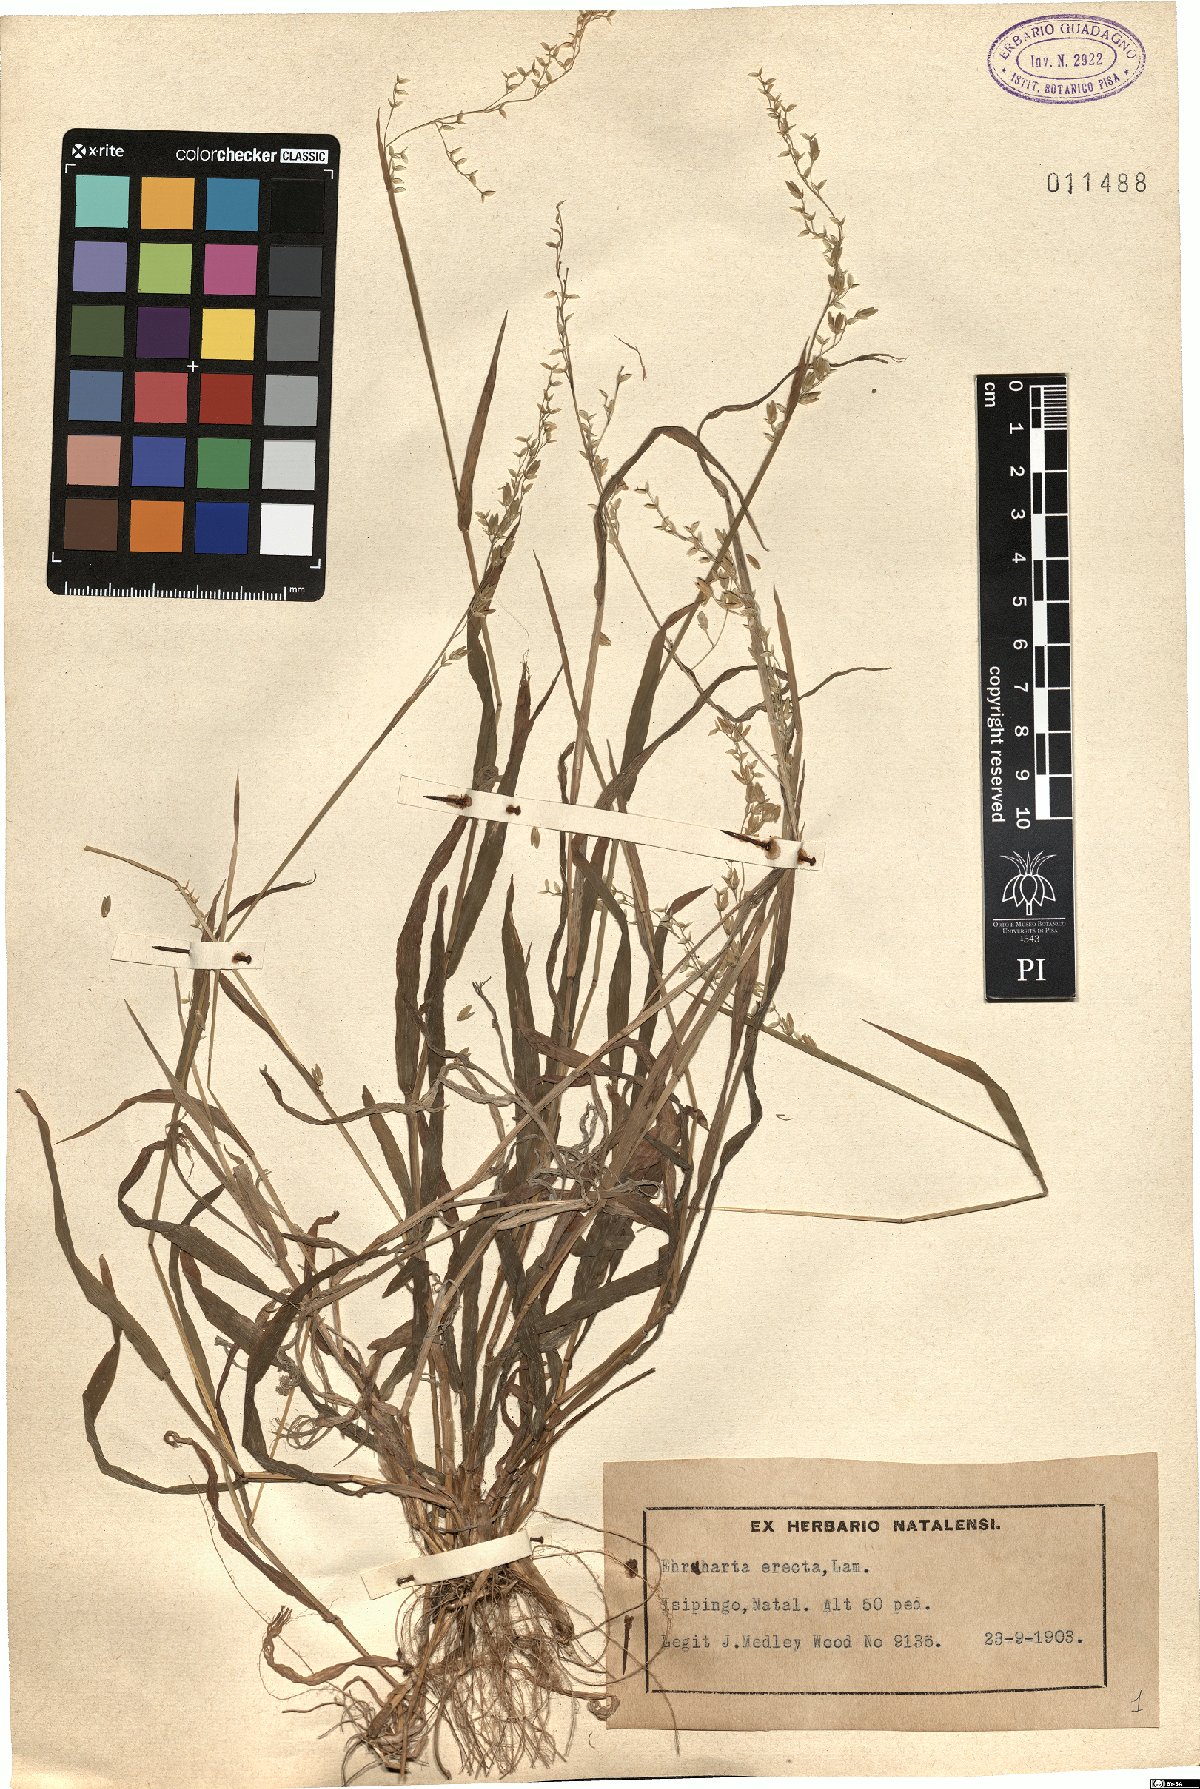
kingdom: Plantae
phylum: Tracheophyta
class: Liliopsida
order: Poales
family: Poaceae
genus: Ehrharta
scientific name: Ehrharta erecta
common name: Panic veldtgrass
